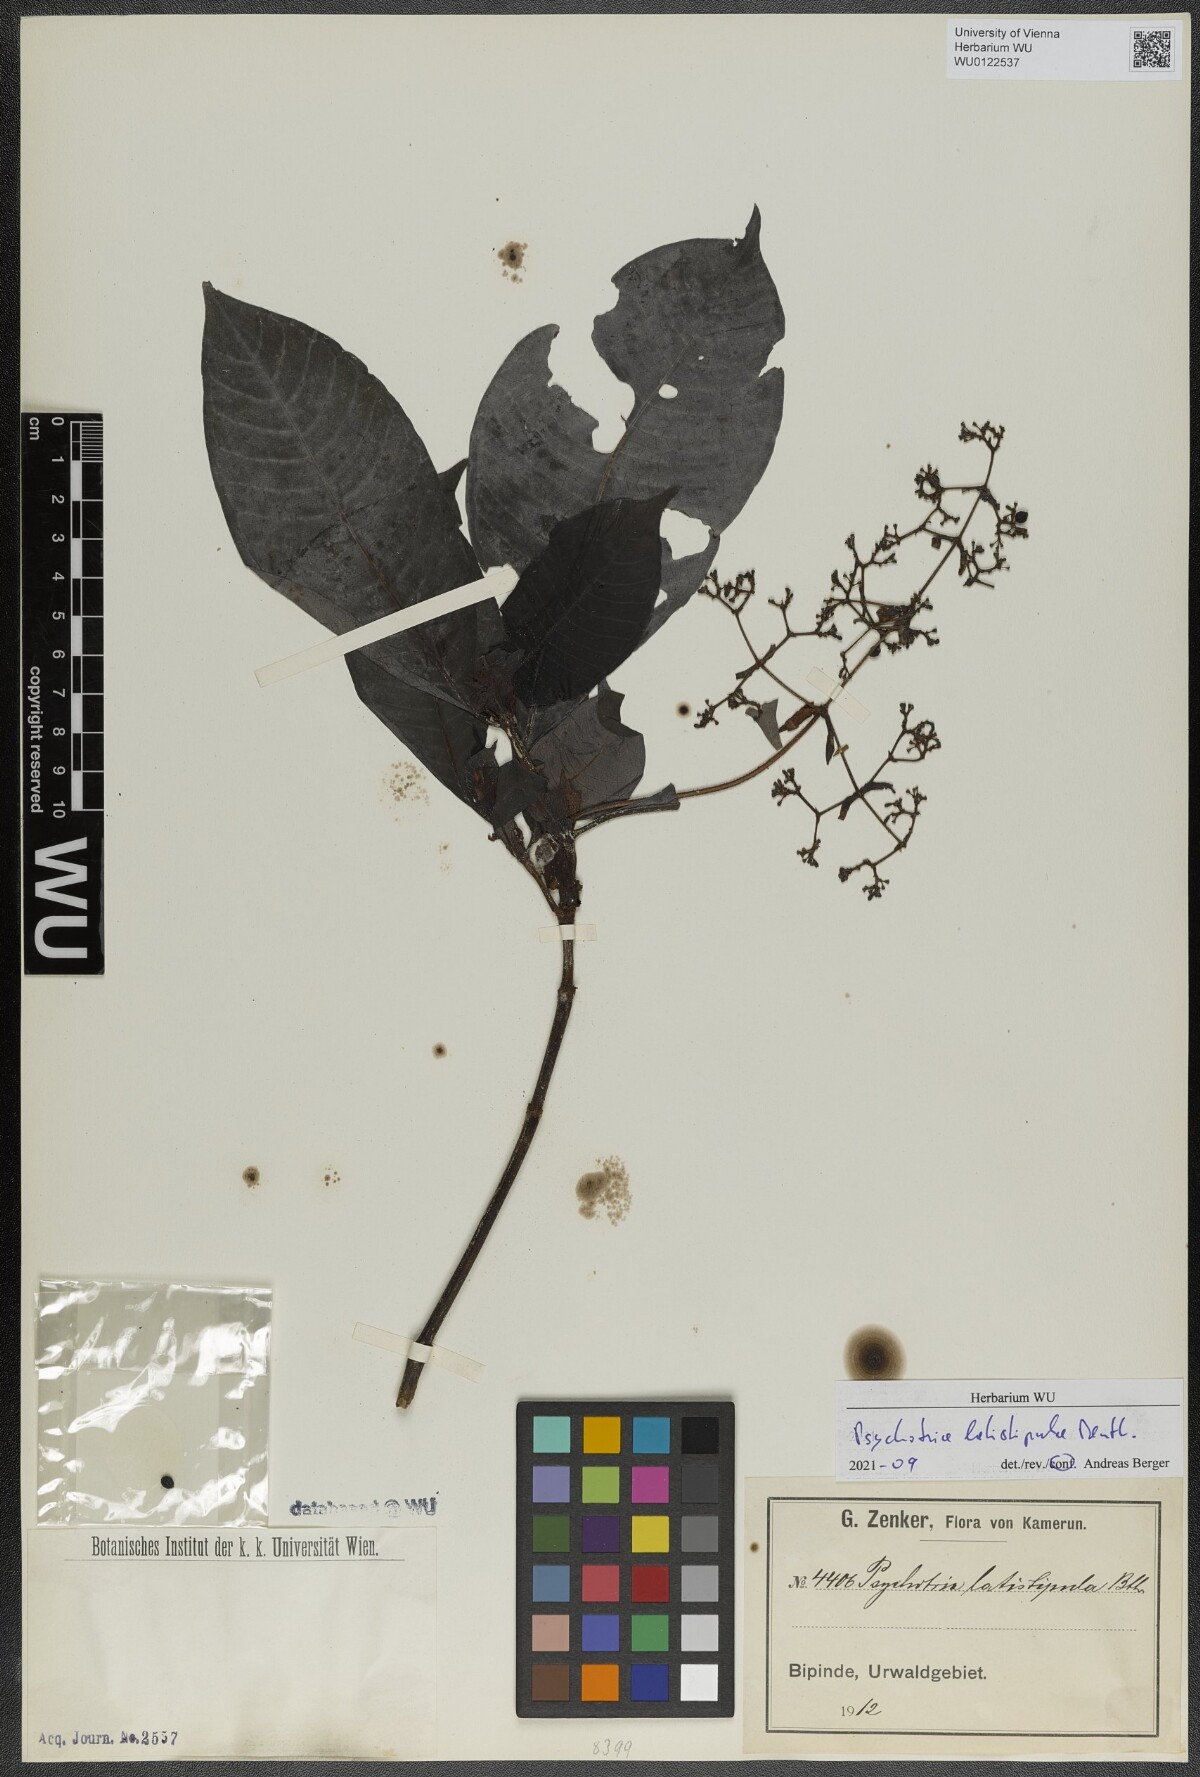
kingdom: Plantae
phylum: Tracheophyta
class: Magnoliopsida
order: Gentianales
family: Rubiaceae
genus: Psychotria
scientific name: Psychotria latistipula
